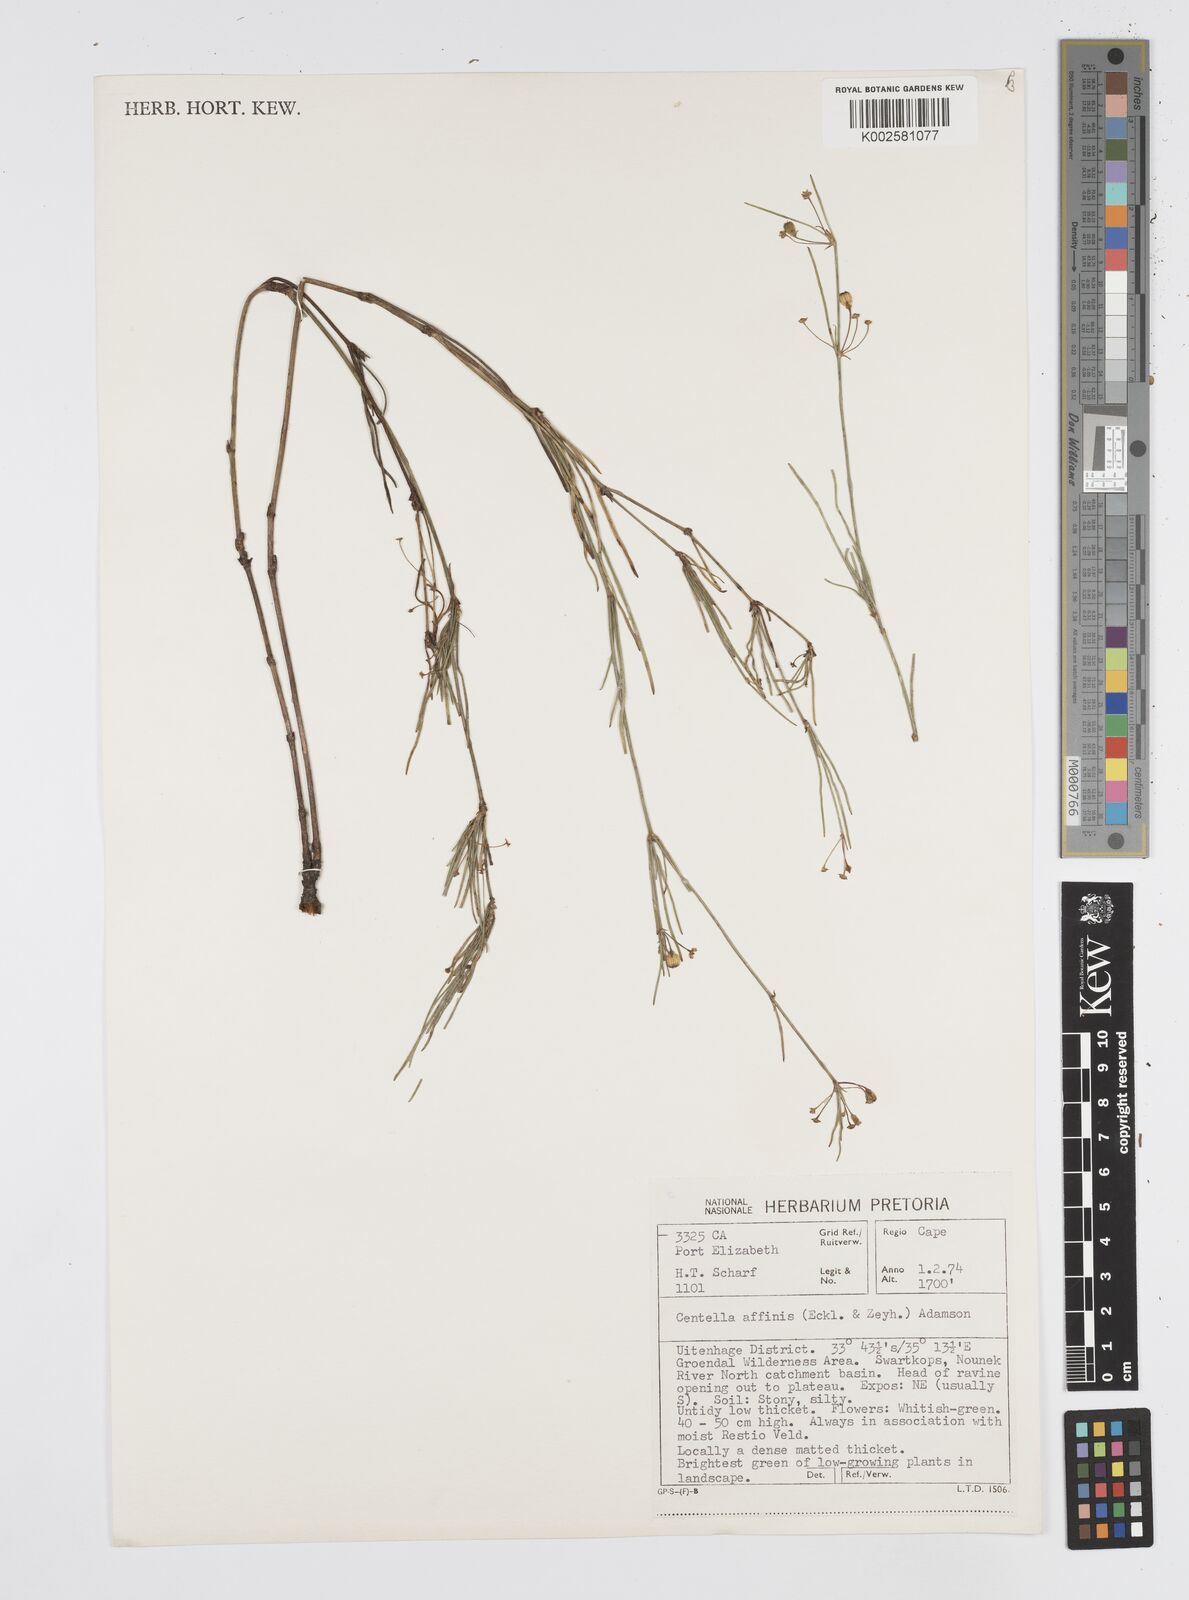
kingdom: Plantae
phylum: Tracheophyta
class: Magnoliopsida
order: Apiales
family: Apiaceae
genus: Centella
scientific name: Centella affinis
